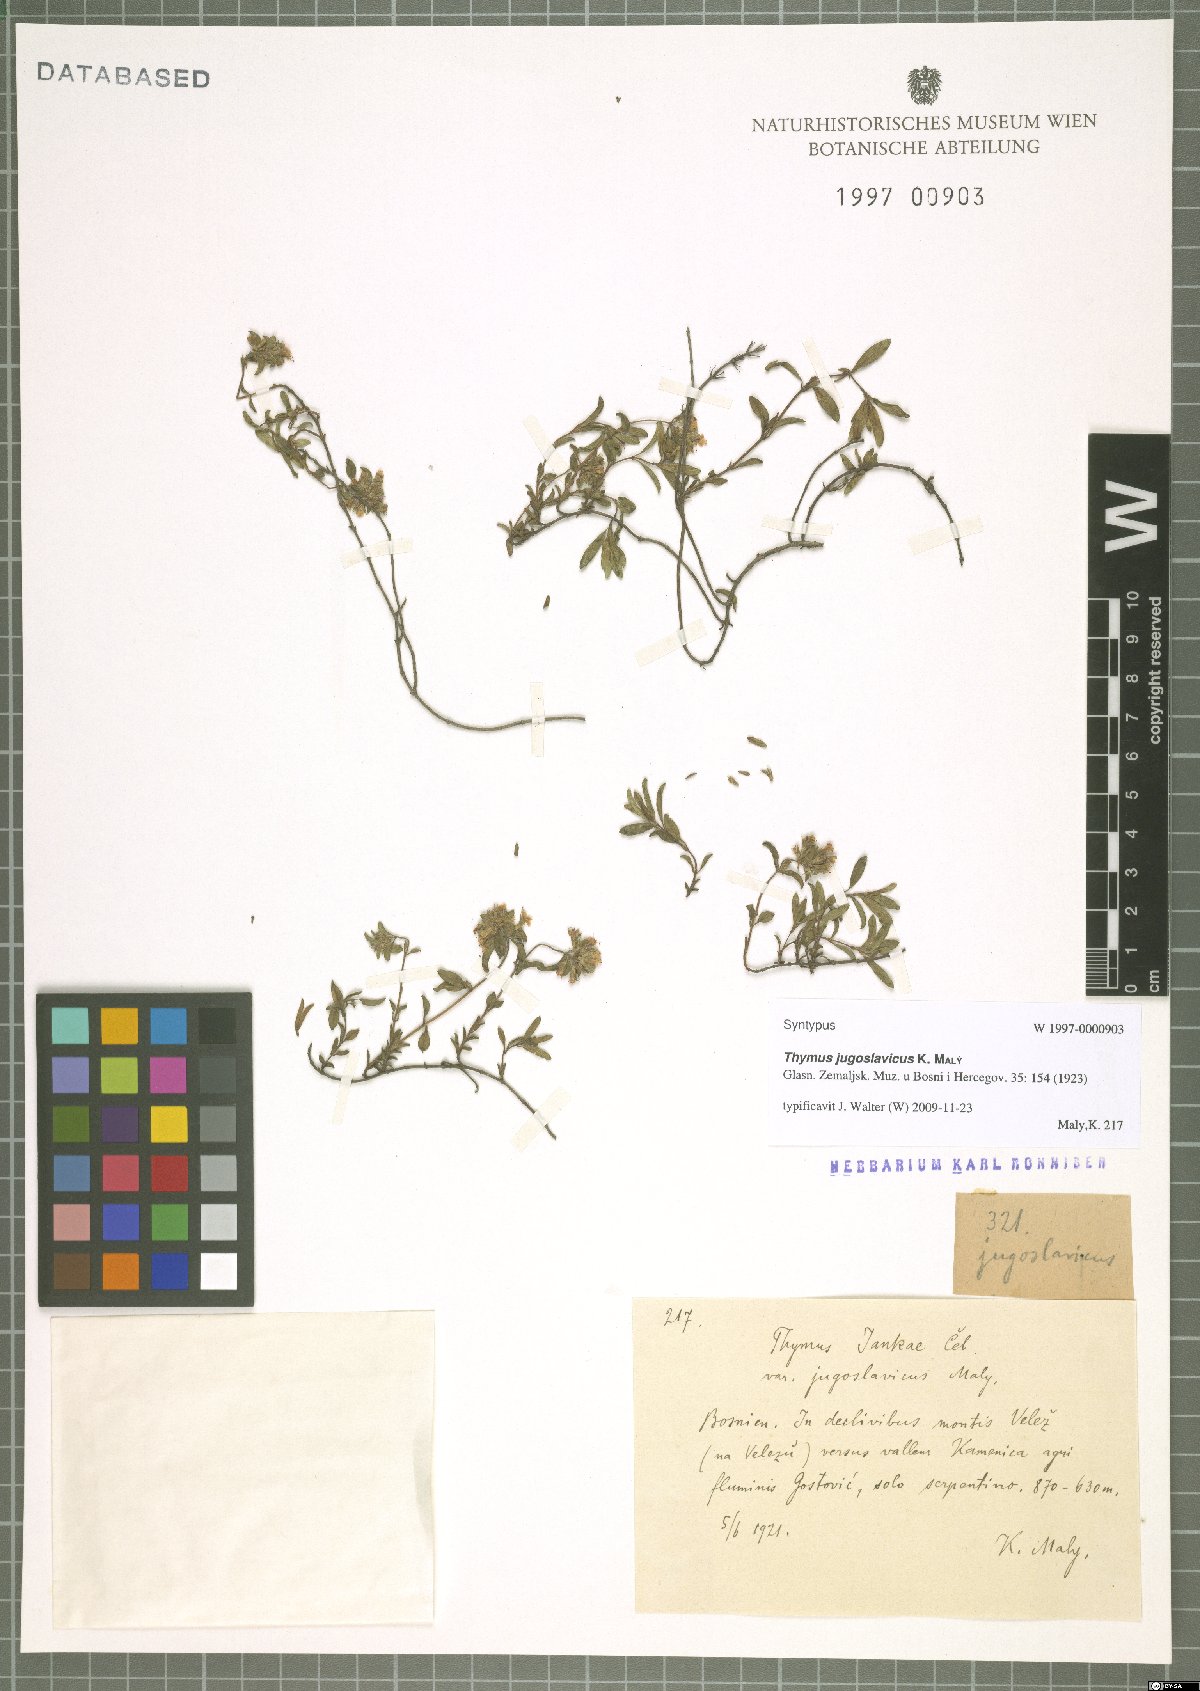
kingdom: Plantae
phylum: Tracheophyta
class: Magnoliopsida
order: Lamiales
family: Lamiaceae
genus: Thymus
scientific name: Thymus jankae
